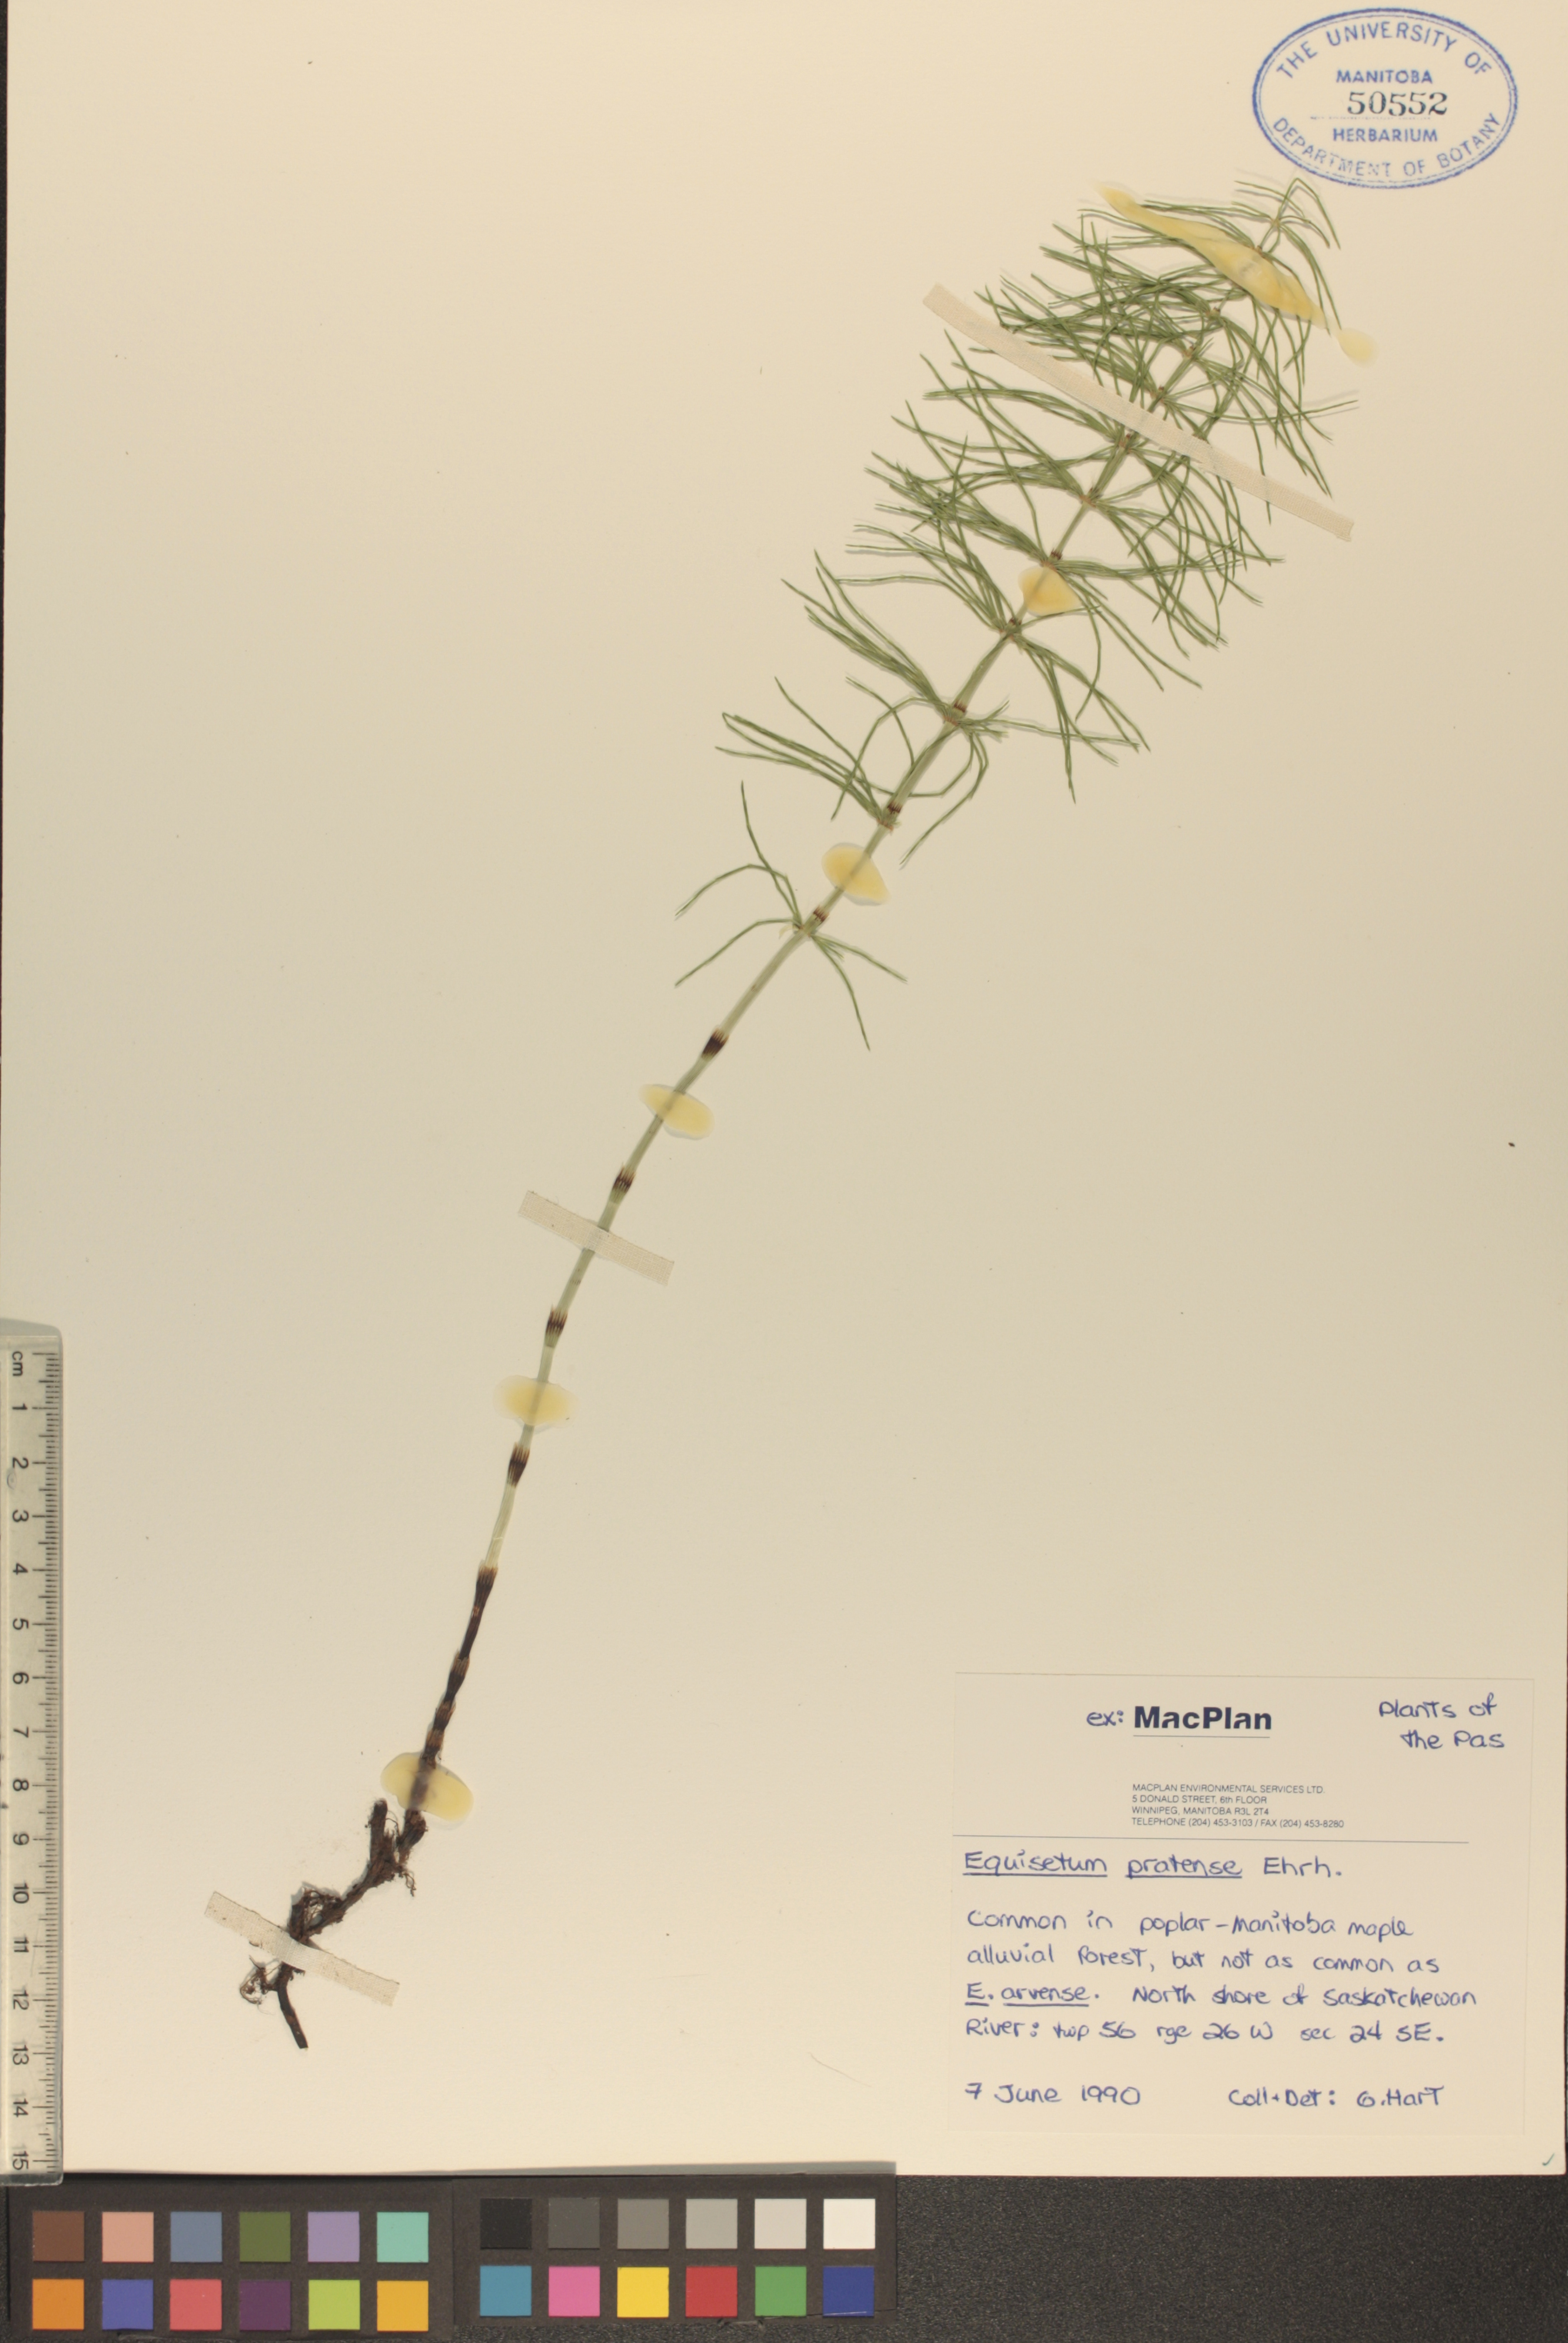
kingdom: Plantae
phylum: Tracheophyta
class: Polypodiopsida
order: Equisetales
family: Equisetaceae
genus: Equisetum
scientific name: Equisetum pratense
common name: Meadow horsetail
